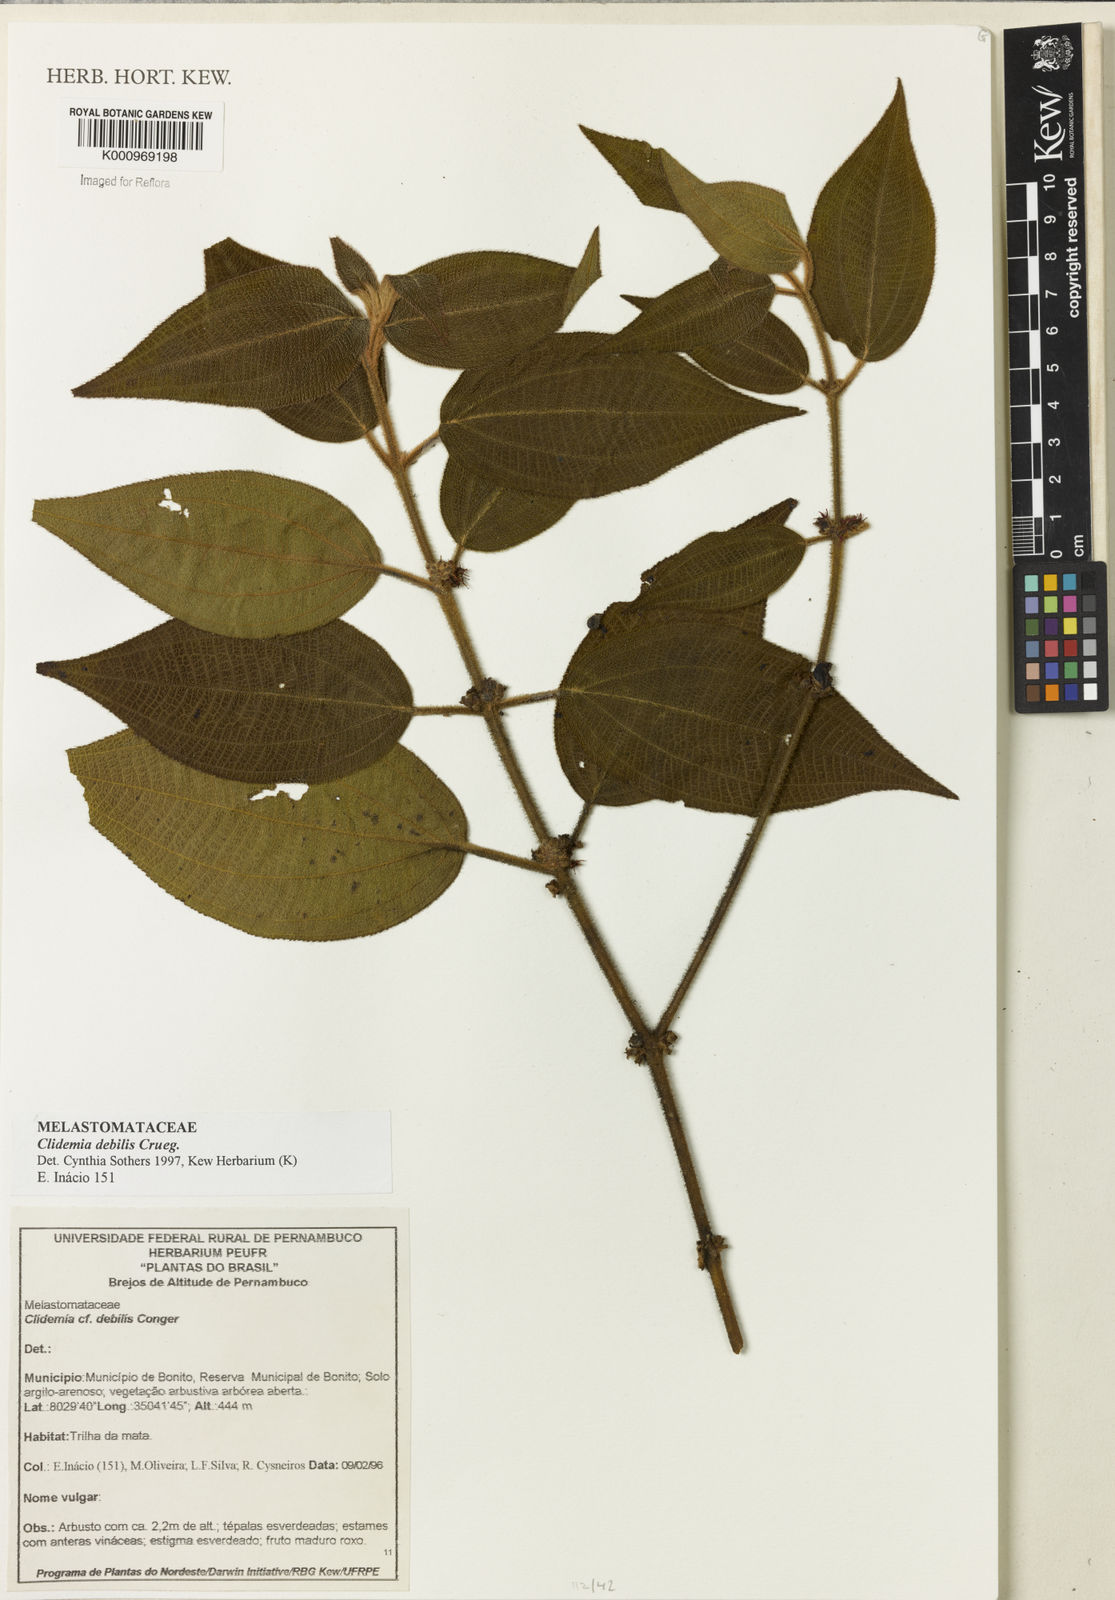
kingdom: Plantae
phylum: Tracheophyta
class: Magnoliopsida
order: Myrtales
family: Melastomataceae
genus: Miconia
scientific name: Miconia debilis
